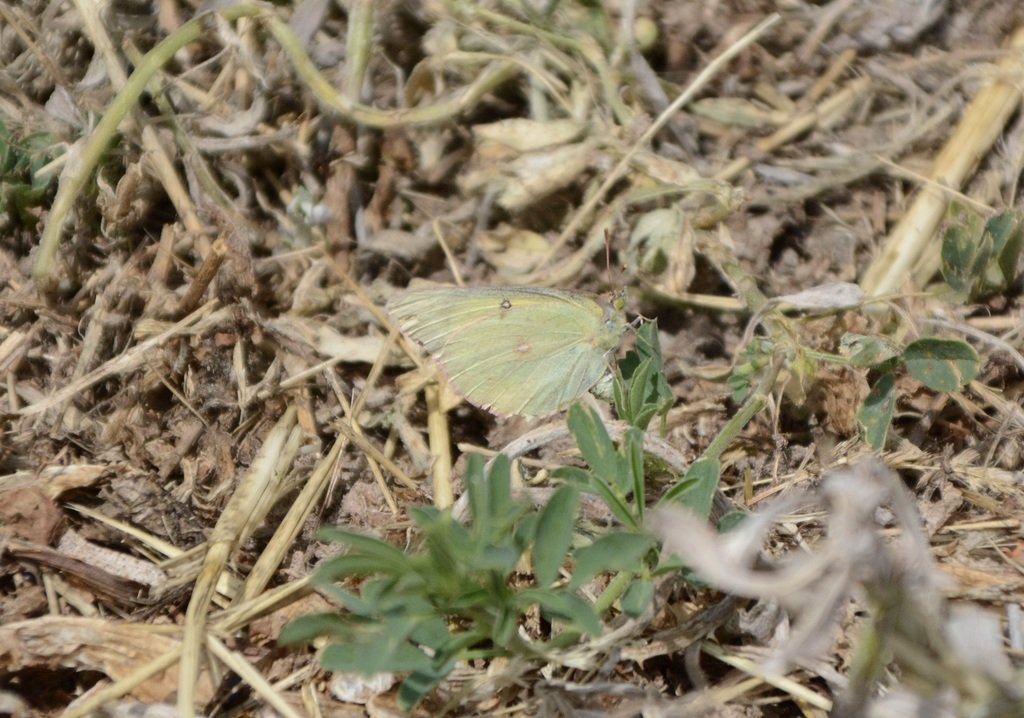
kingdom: Animalia
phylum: Arthropoda
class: Insecta
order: Lepidoptera
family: Pieridae
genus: Colias
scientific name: Colias philodice
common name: Clouded Sulphur
